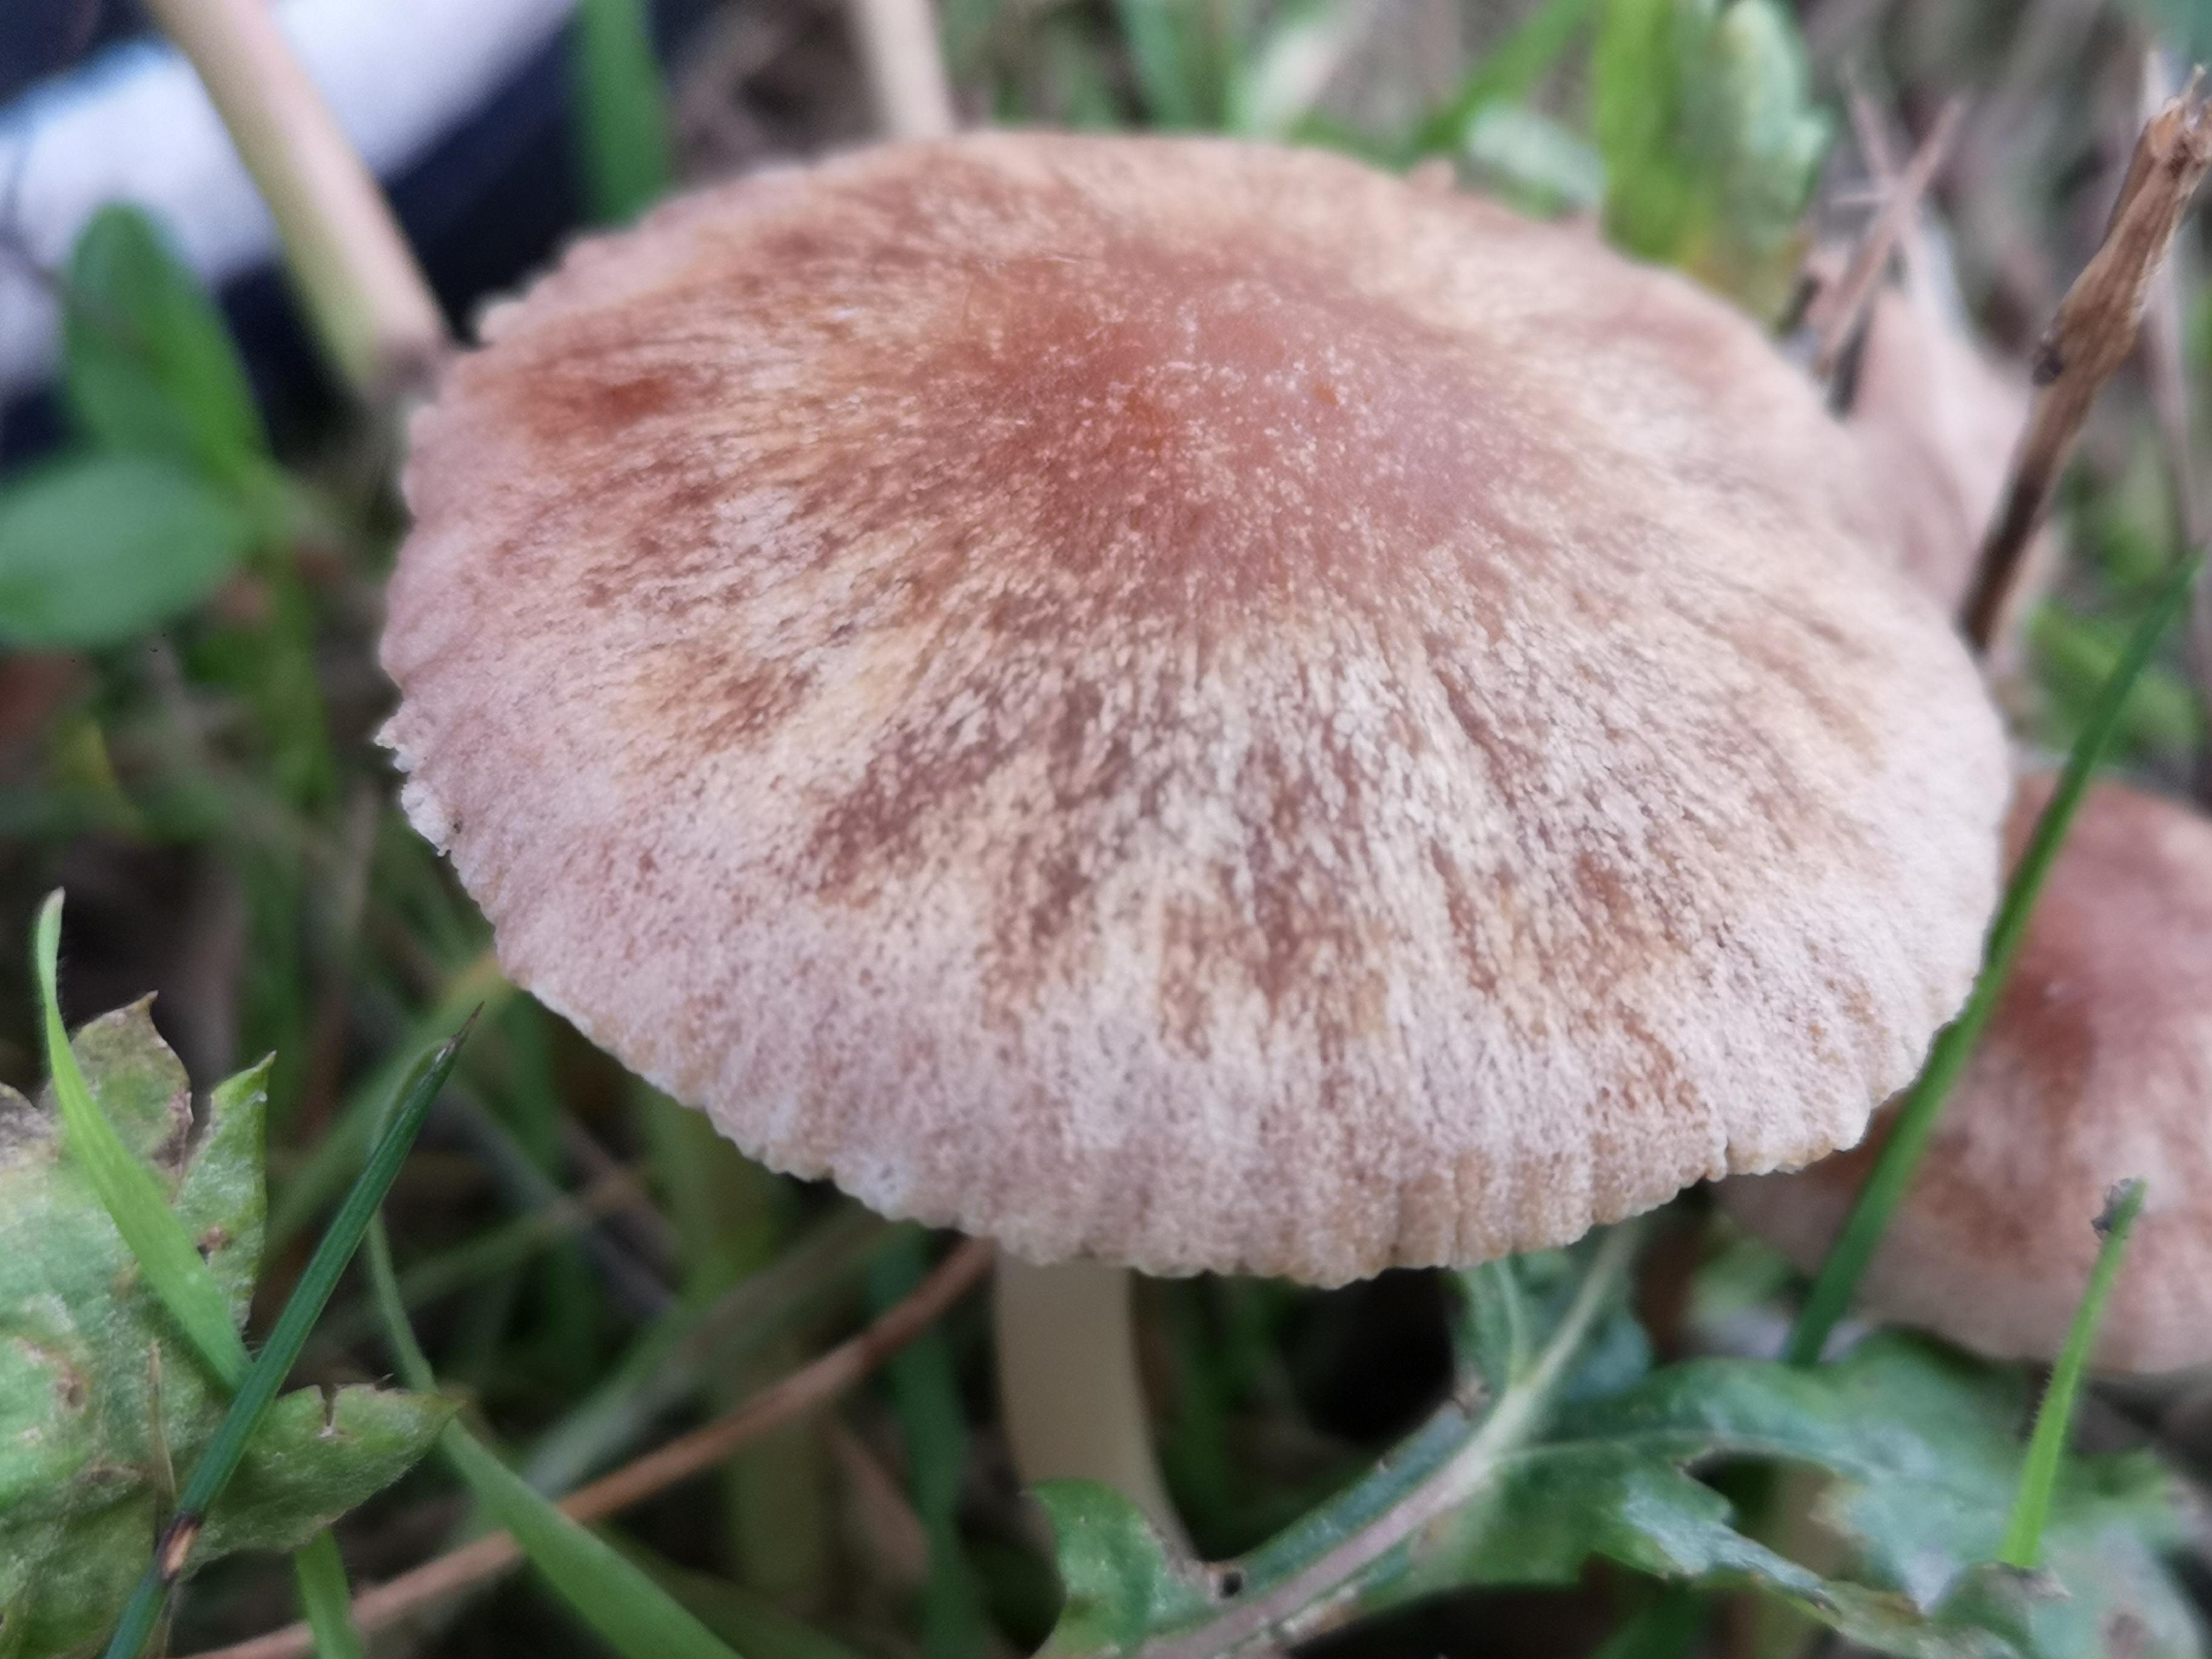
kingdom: Fungi
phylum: Basidiomycota
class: Agaricomycetes
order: Agaricales
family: Psathyrellaceae
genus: Psathyrella
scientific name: Psathyrella
